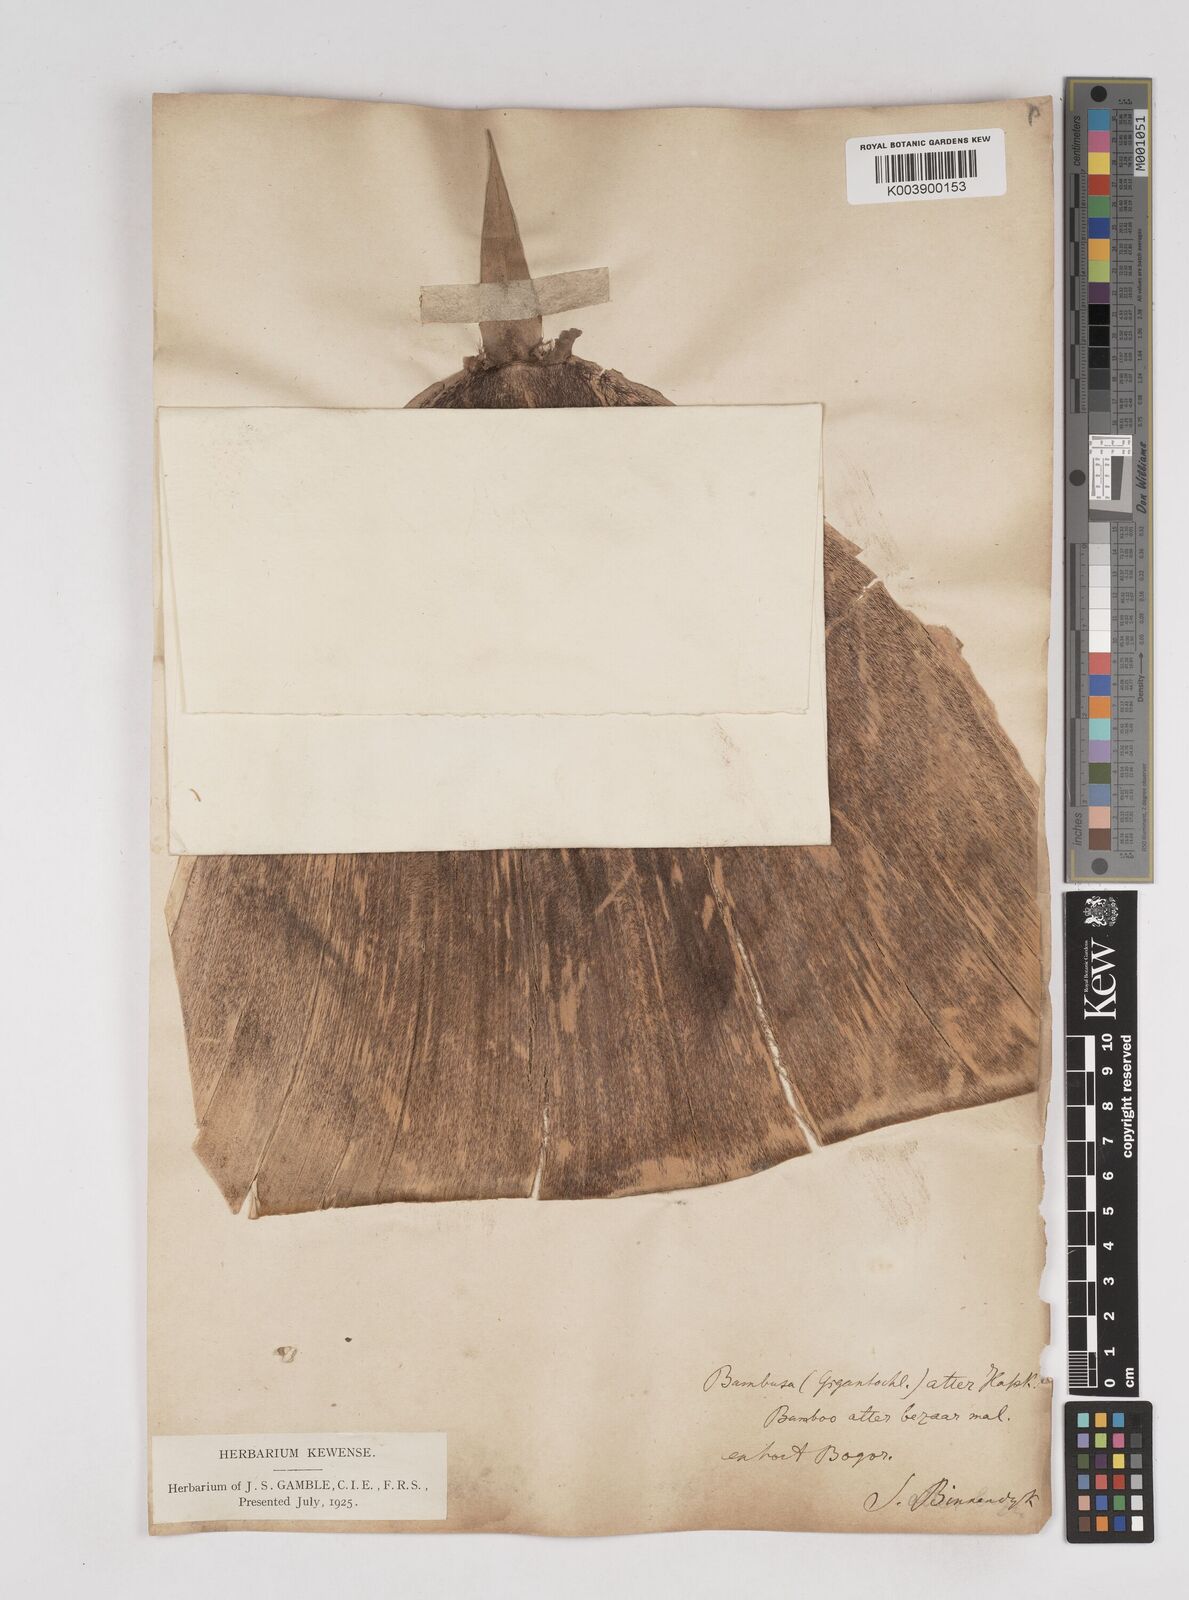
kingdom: Plantae
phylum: Tracheophyta
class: Liliopsida
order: Poales
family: Poaceae
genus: Gigantochloa
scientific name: Gigantochloa atter
